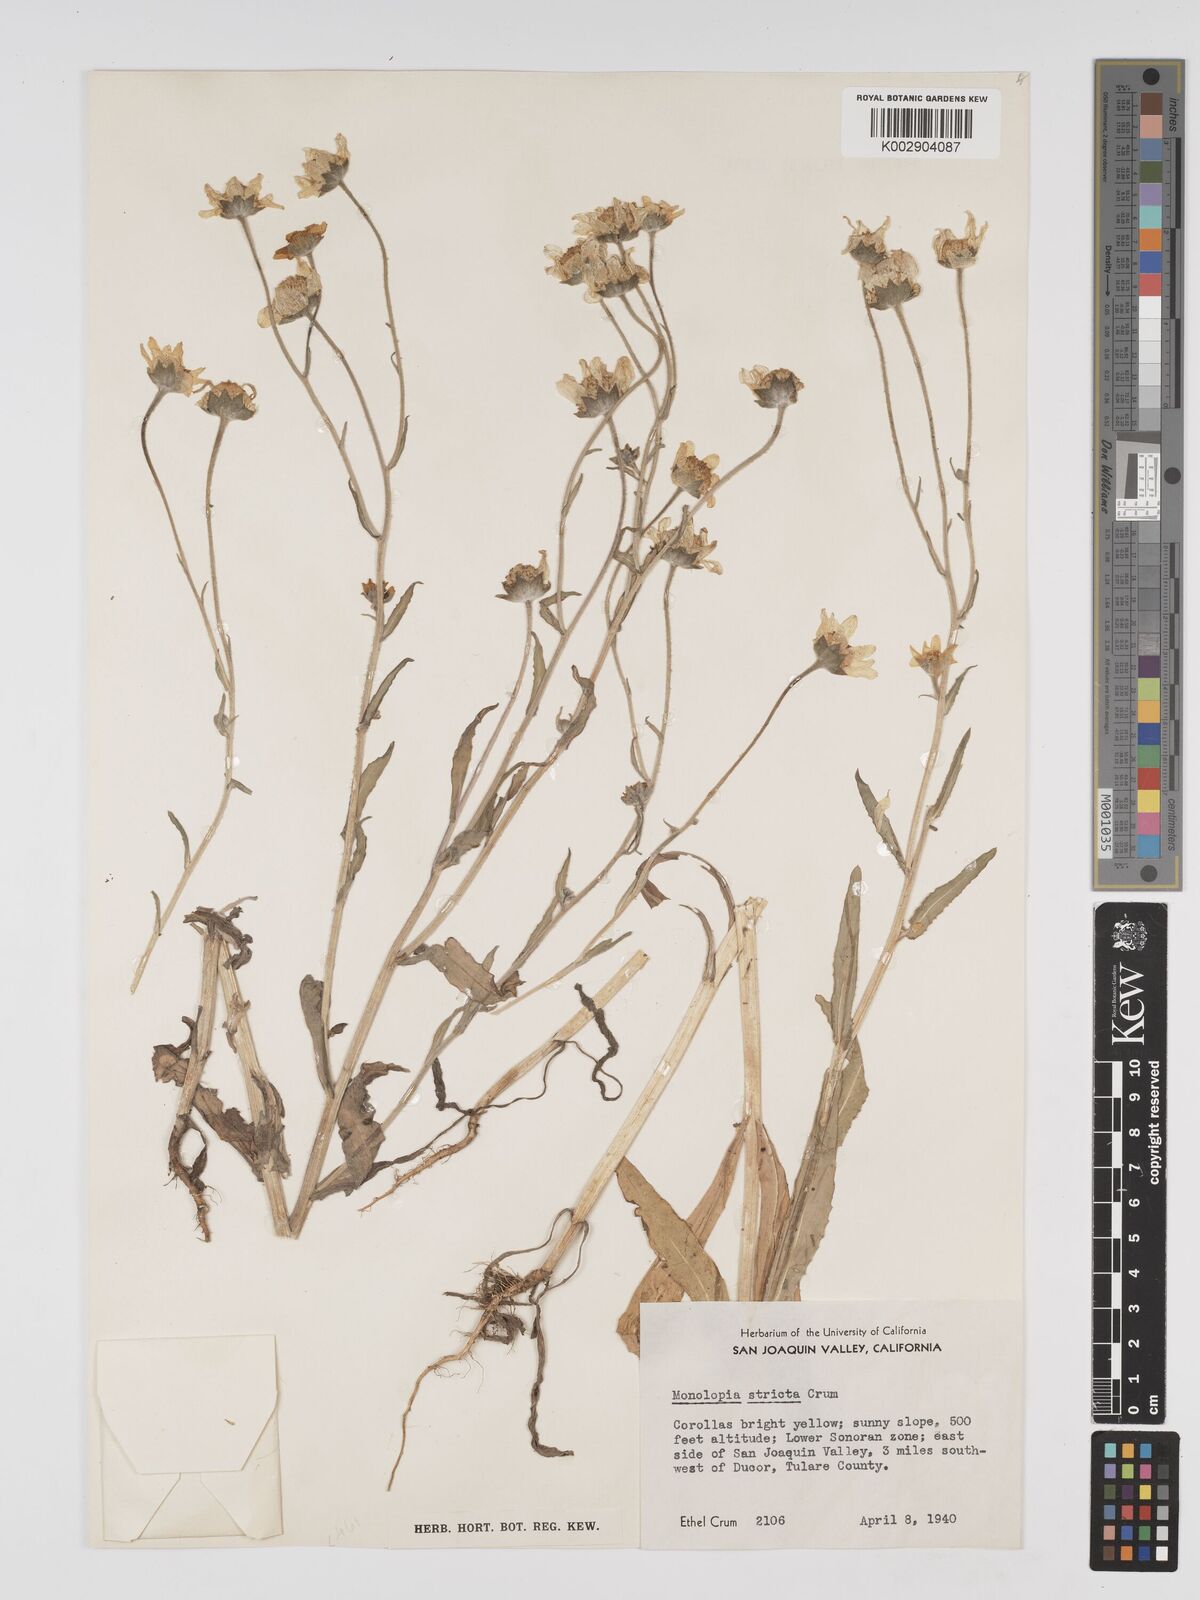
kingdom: Plantae
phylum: Tracheophyta
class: Magnoliopsida
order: Asterales
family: Asteraceae
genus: Monolopia
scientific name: Monolopia stricta
